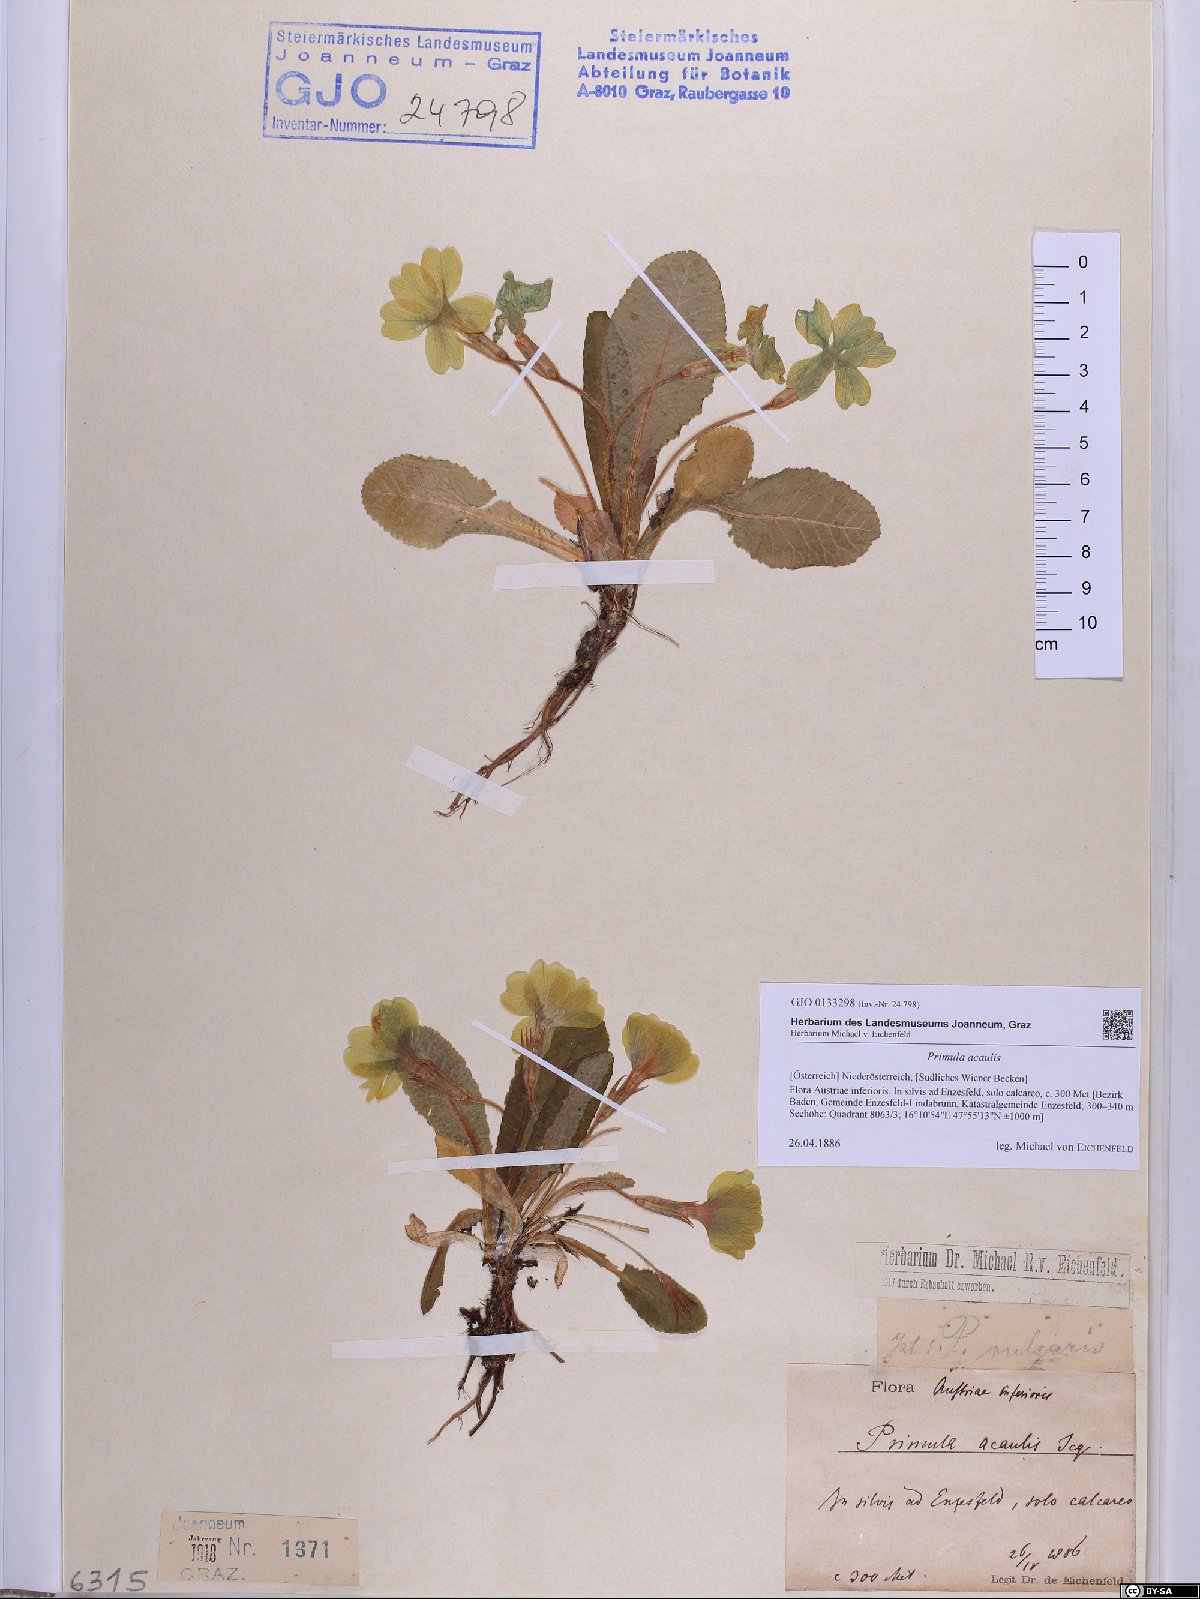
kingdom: Plantae
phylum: Tracheophyta
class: Magnoliopsida
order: Ericales
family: Primulaceae
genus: Primula
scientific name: Primula vulgaris
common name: Primrose
